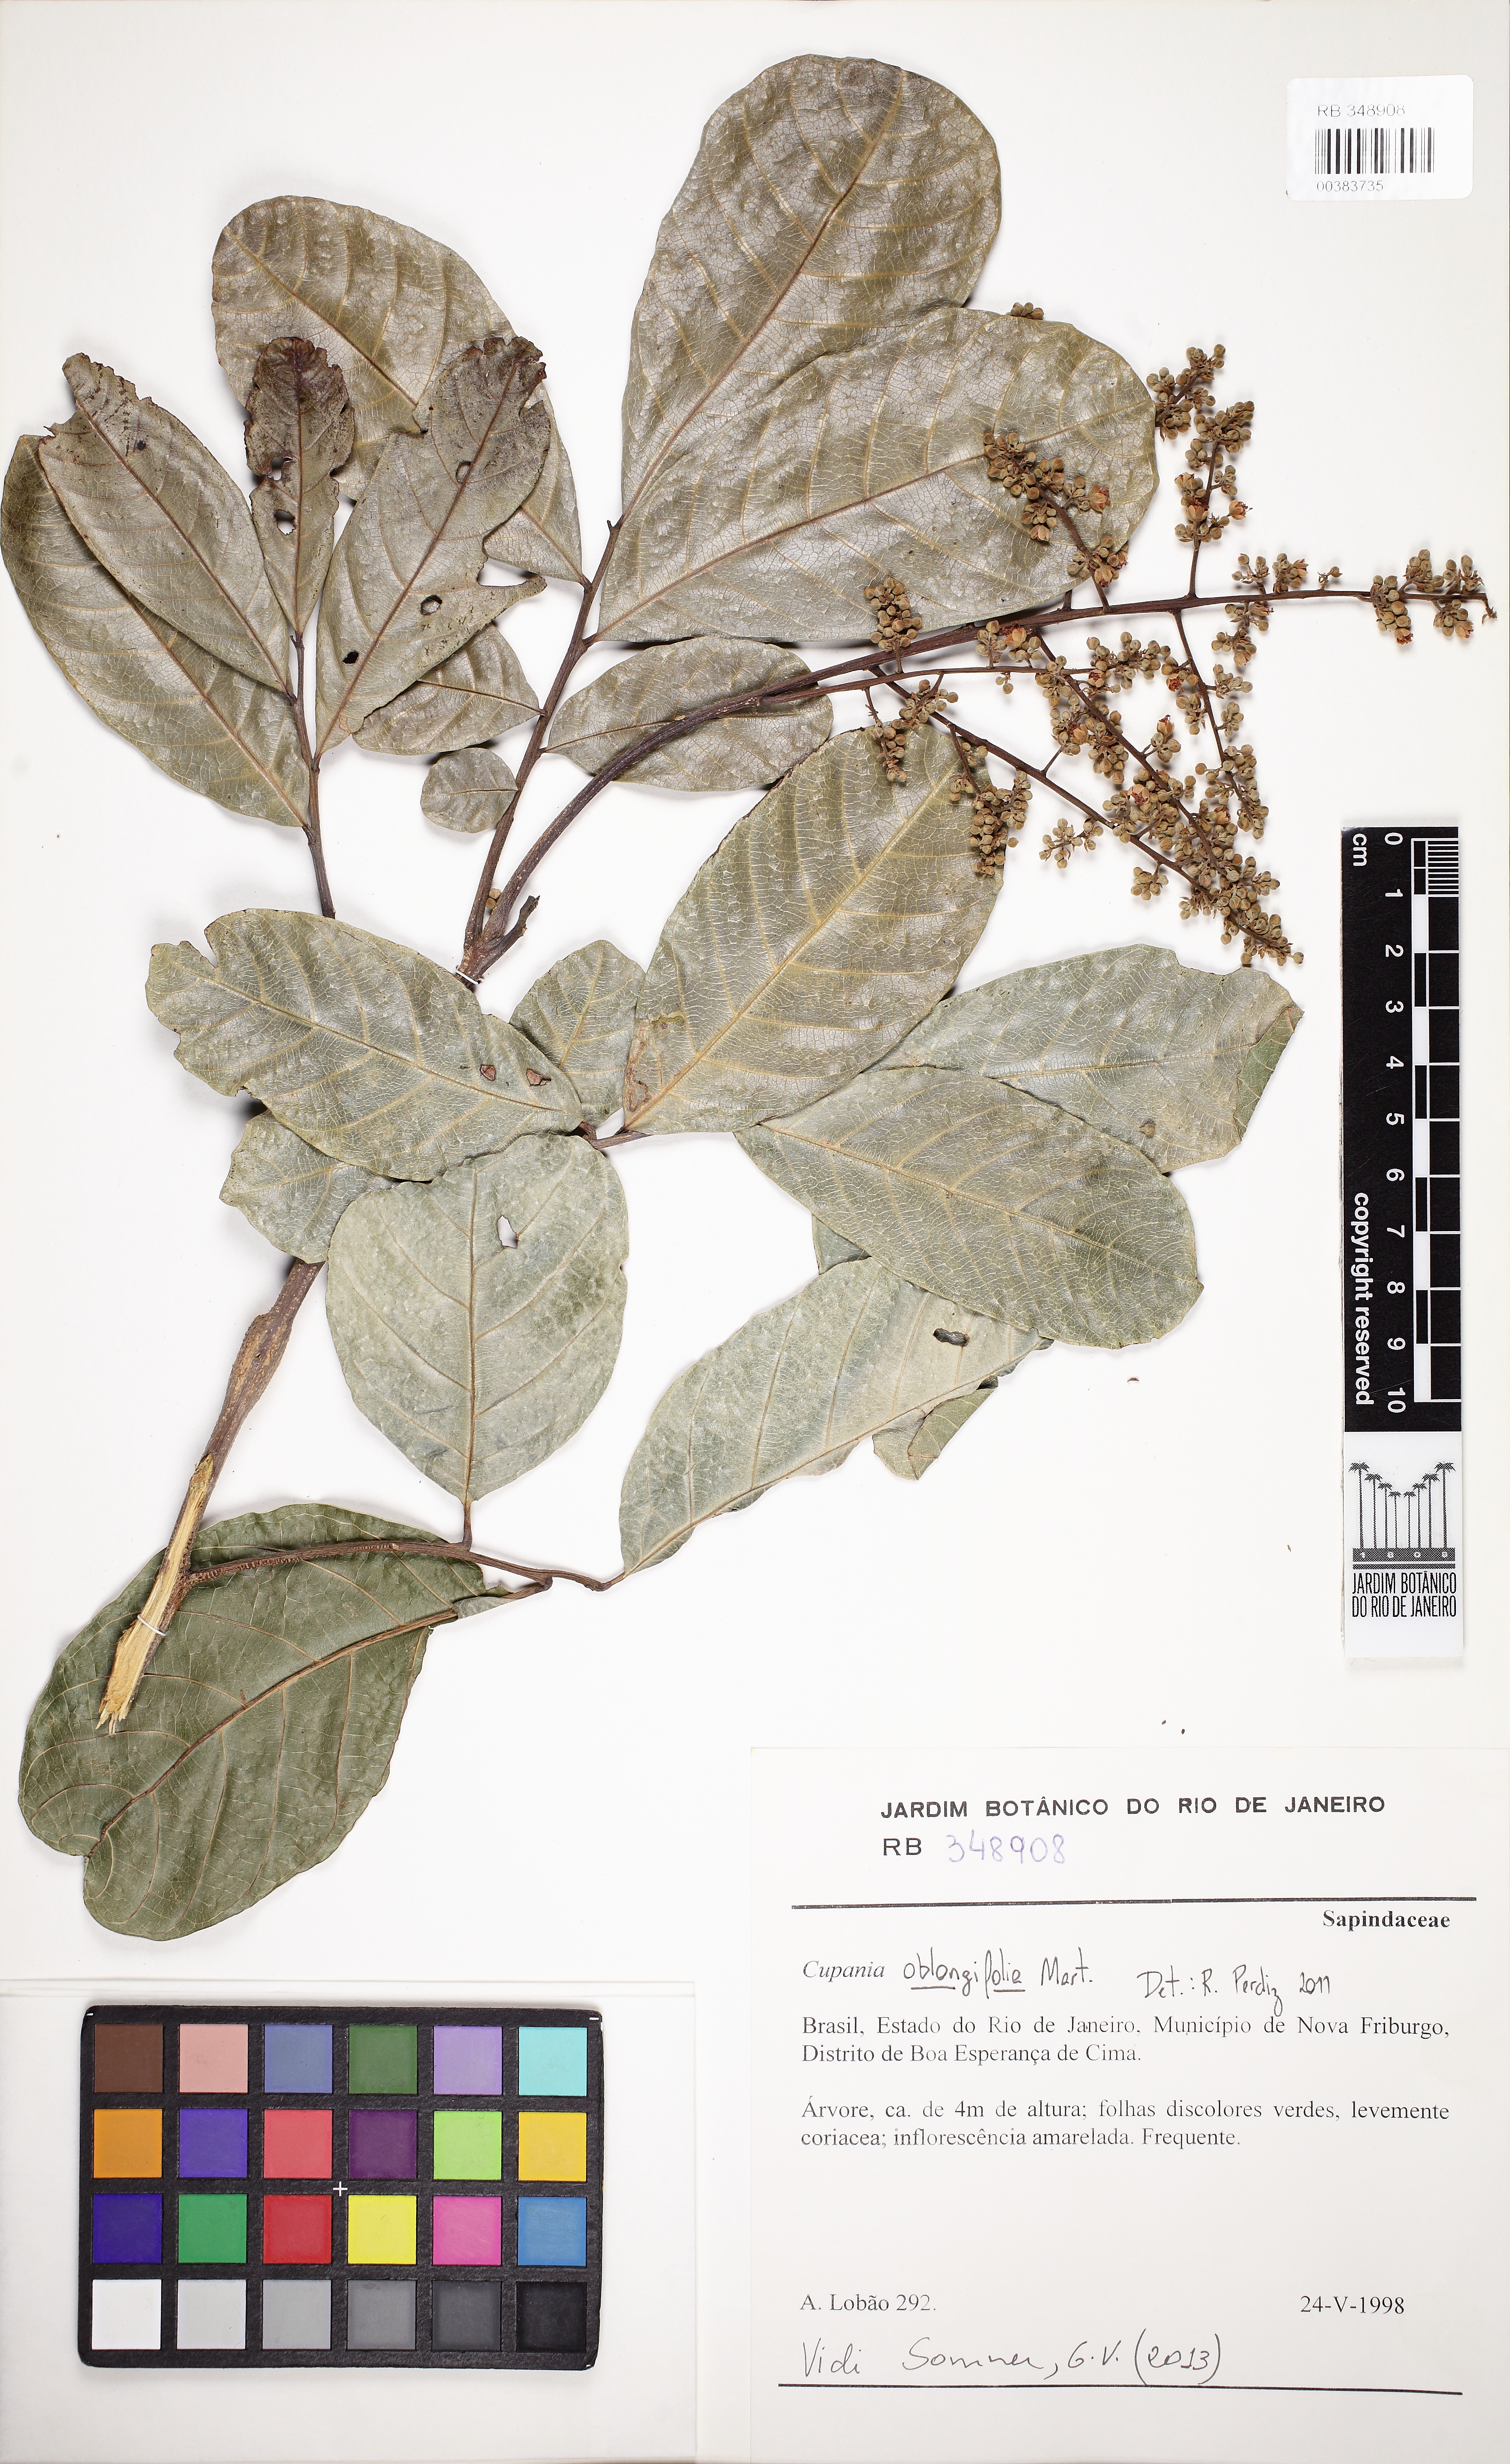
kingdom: Plantae
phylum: Tracheophyta
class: Magnoliopsida
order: Sapindales
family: Sapindaceae
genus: Cupania
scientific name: Cupania oblongifolia
